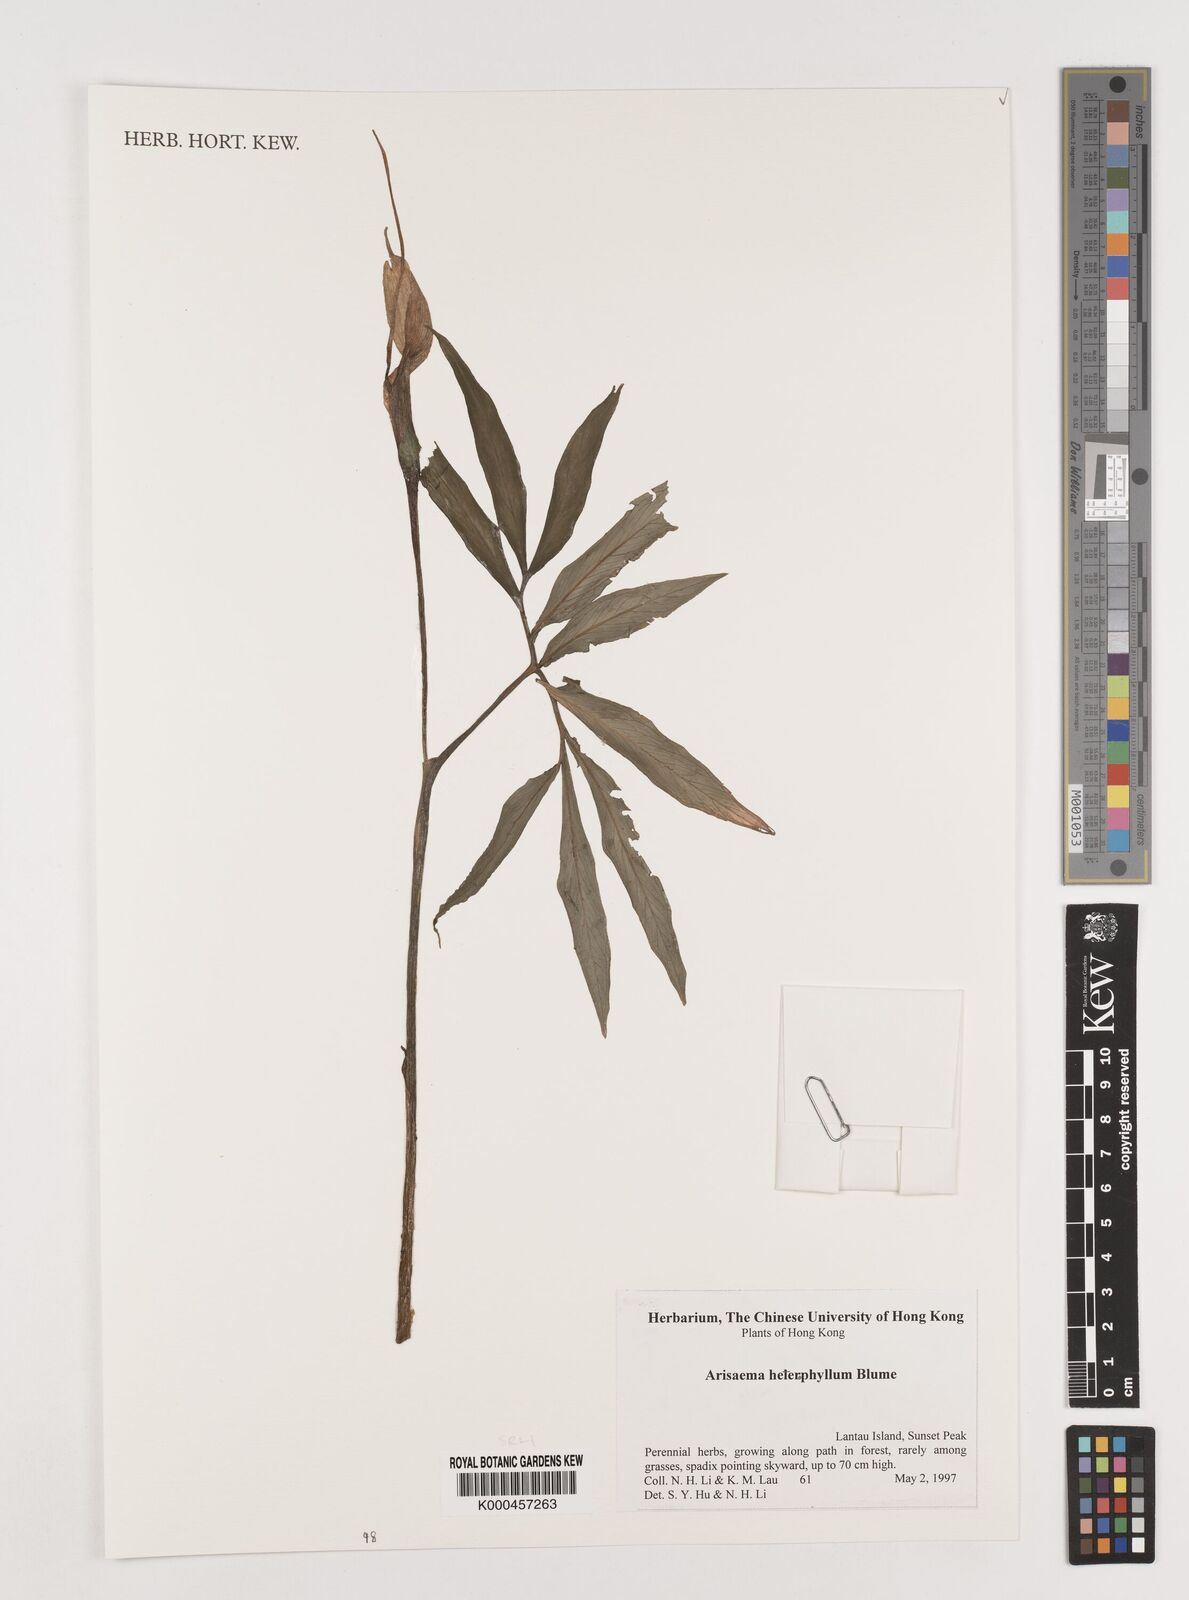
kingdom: Plantae
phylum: Tracheophyta
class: Liliopsida
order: Alismatales
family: Araceae
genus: Arisaema
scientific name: Arisaema heterophyllum
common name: Dancing crane cobra lily
